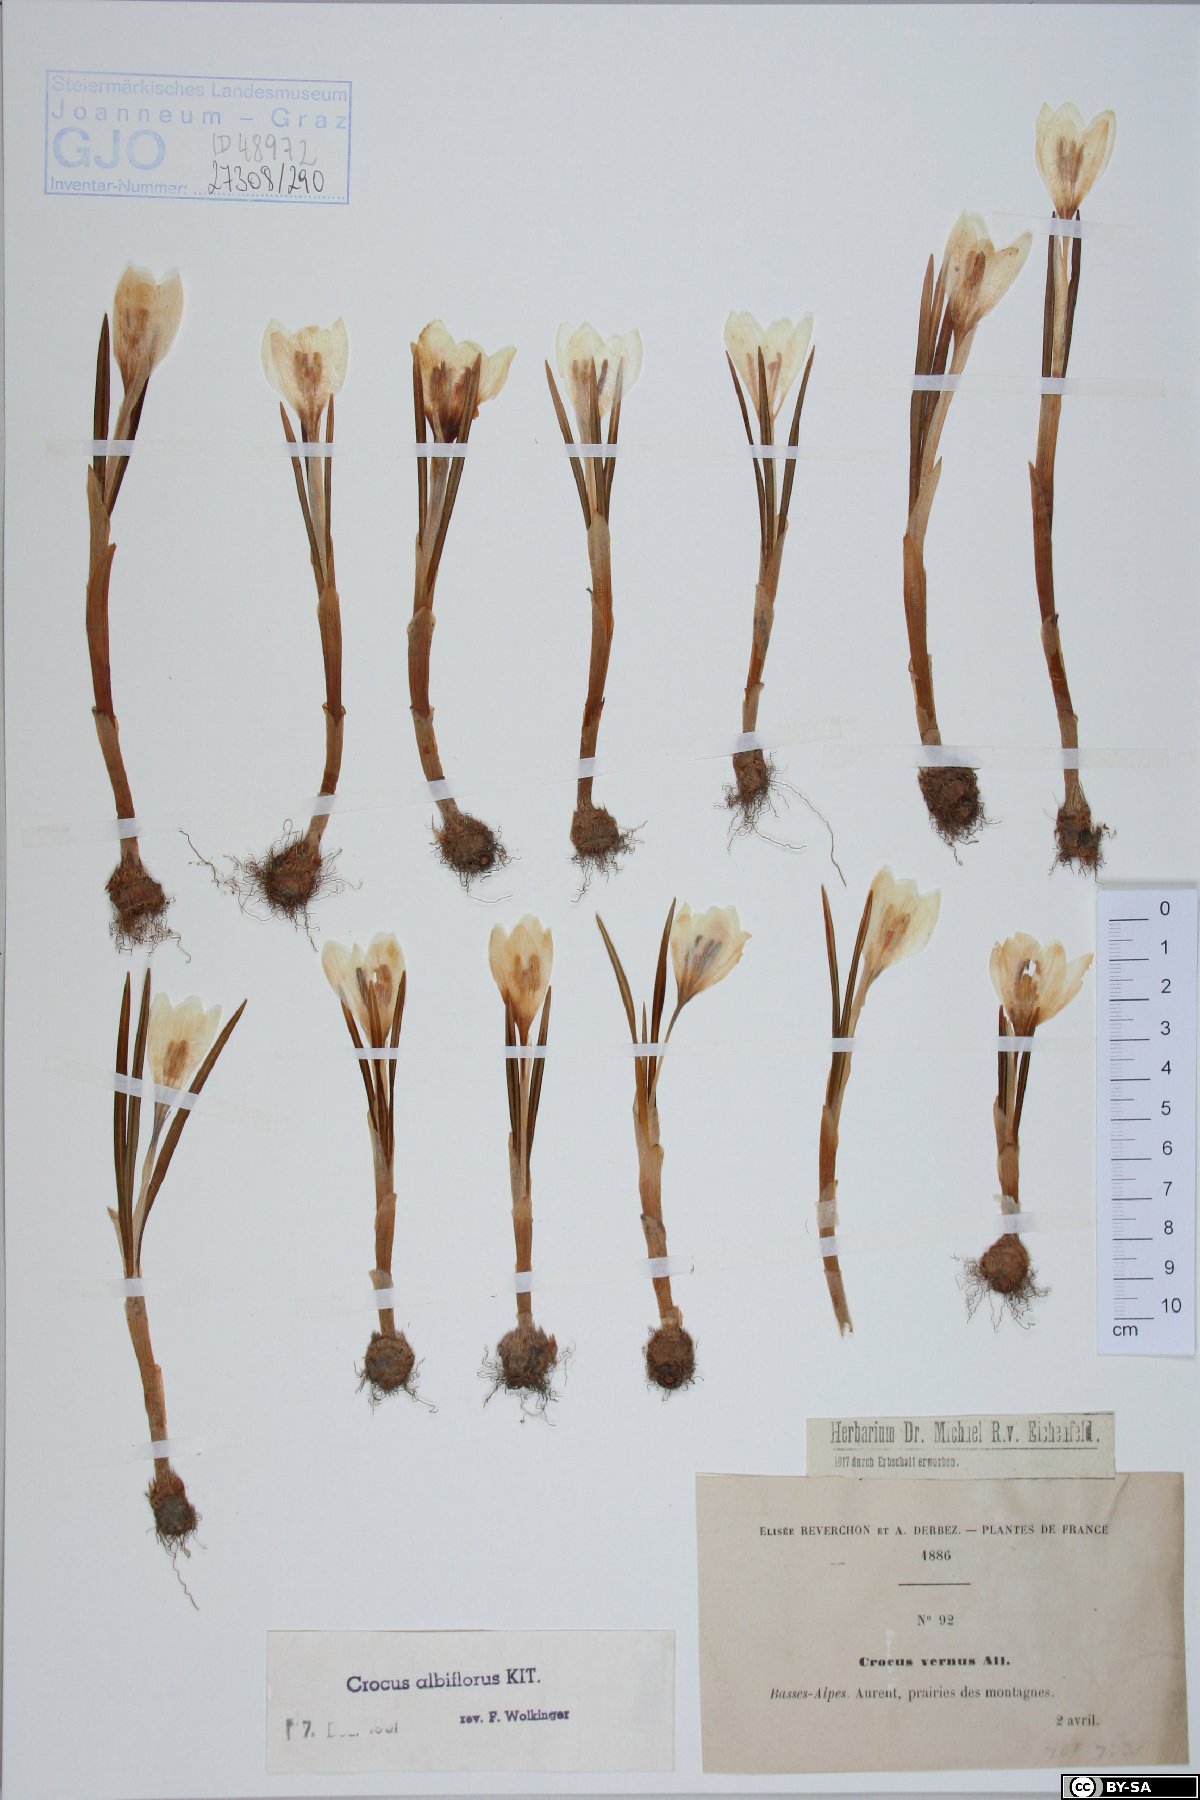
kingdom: Plantae
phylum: Tracheophyta
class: Liliopsida
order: Asparagales
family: Iridaceae
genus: Crocus
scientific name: Crocus vernus
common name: Spring crocus
